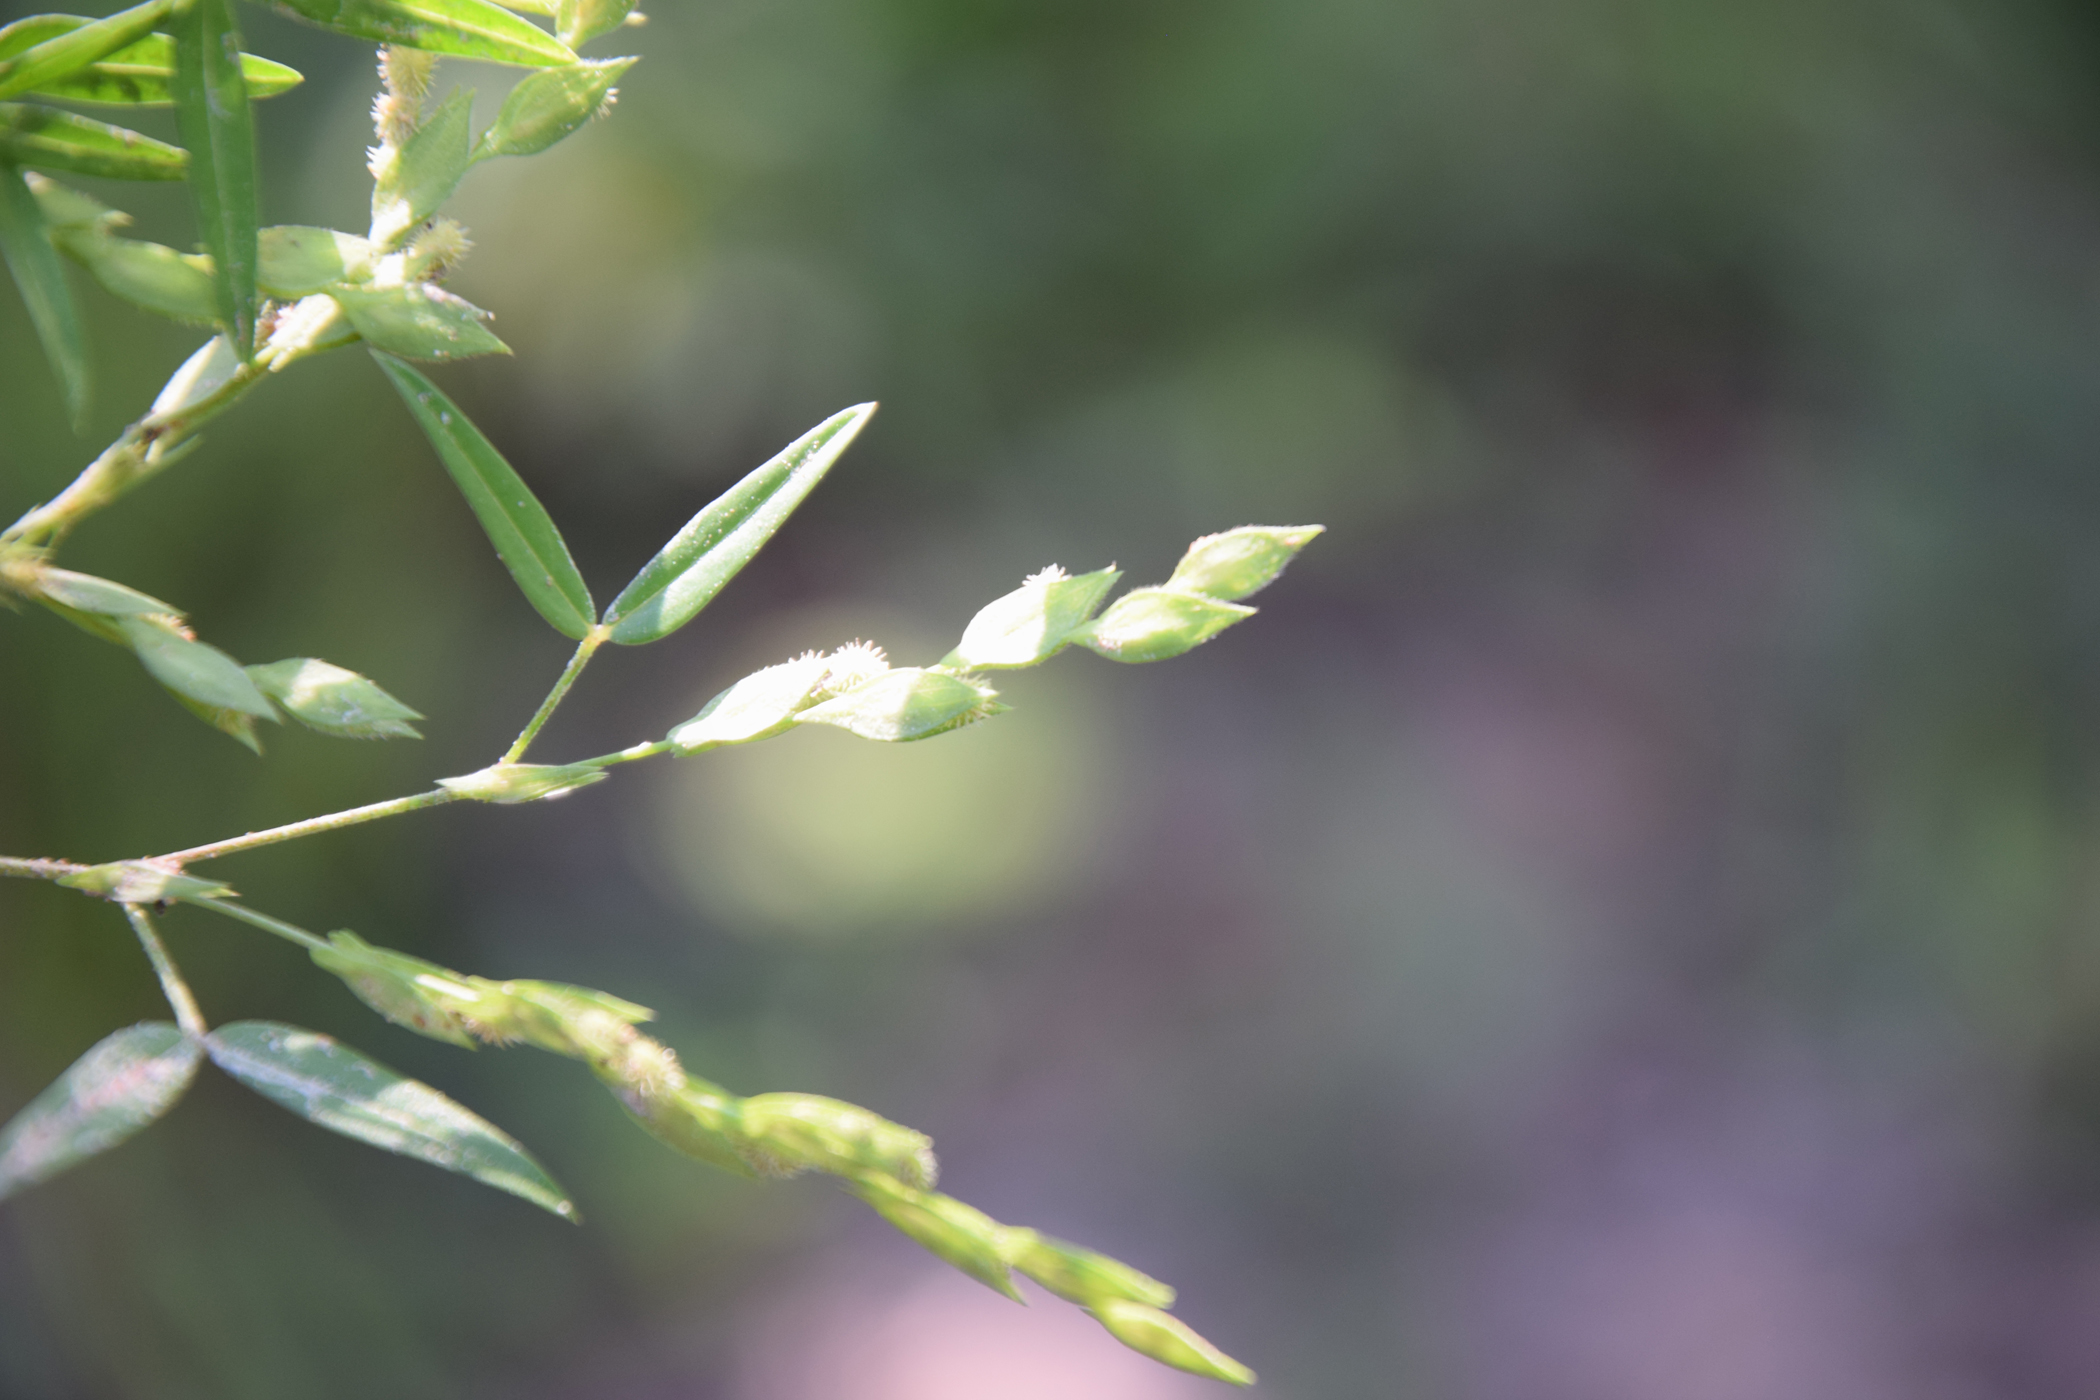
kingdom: Plantae
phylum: Tracheophyta
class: Magnoliopsida
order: Fabales
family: Fabaceae
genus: Zornia
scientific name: Zornia gibbosa
